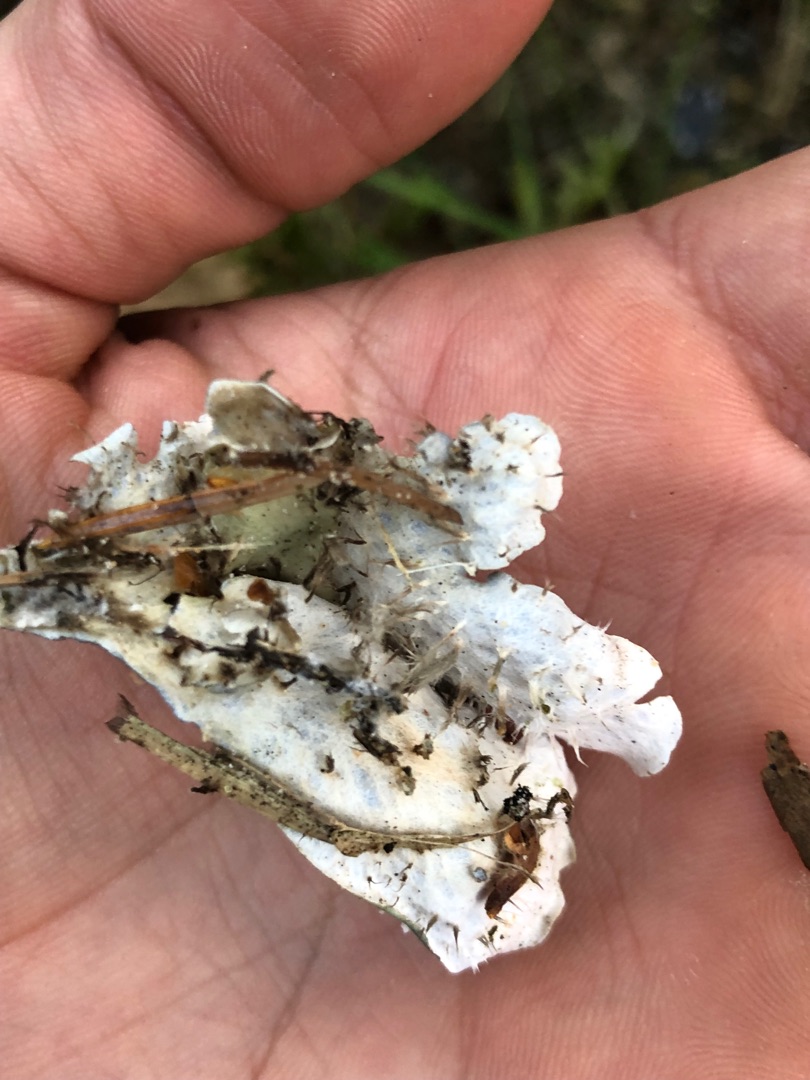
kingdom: Fungi
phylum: Ascomycota
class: Lecanoromycetes
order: Peltigerales
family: Peltigeraceae
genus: Peltigera
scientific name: Peltigera hymenina
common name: Hinde-skjoldlav
